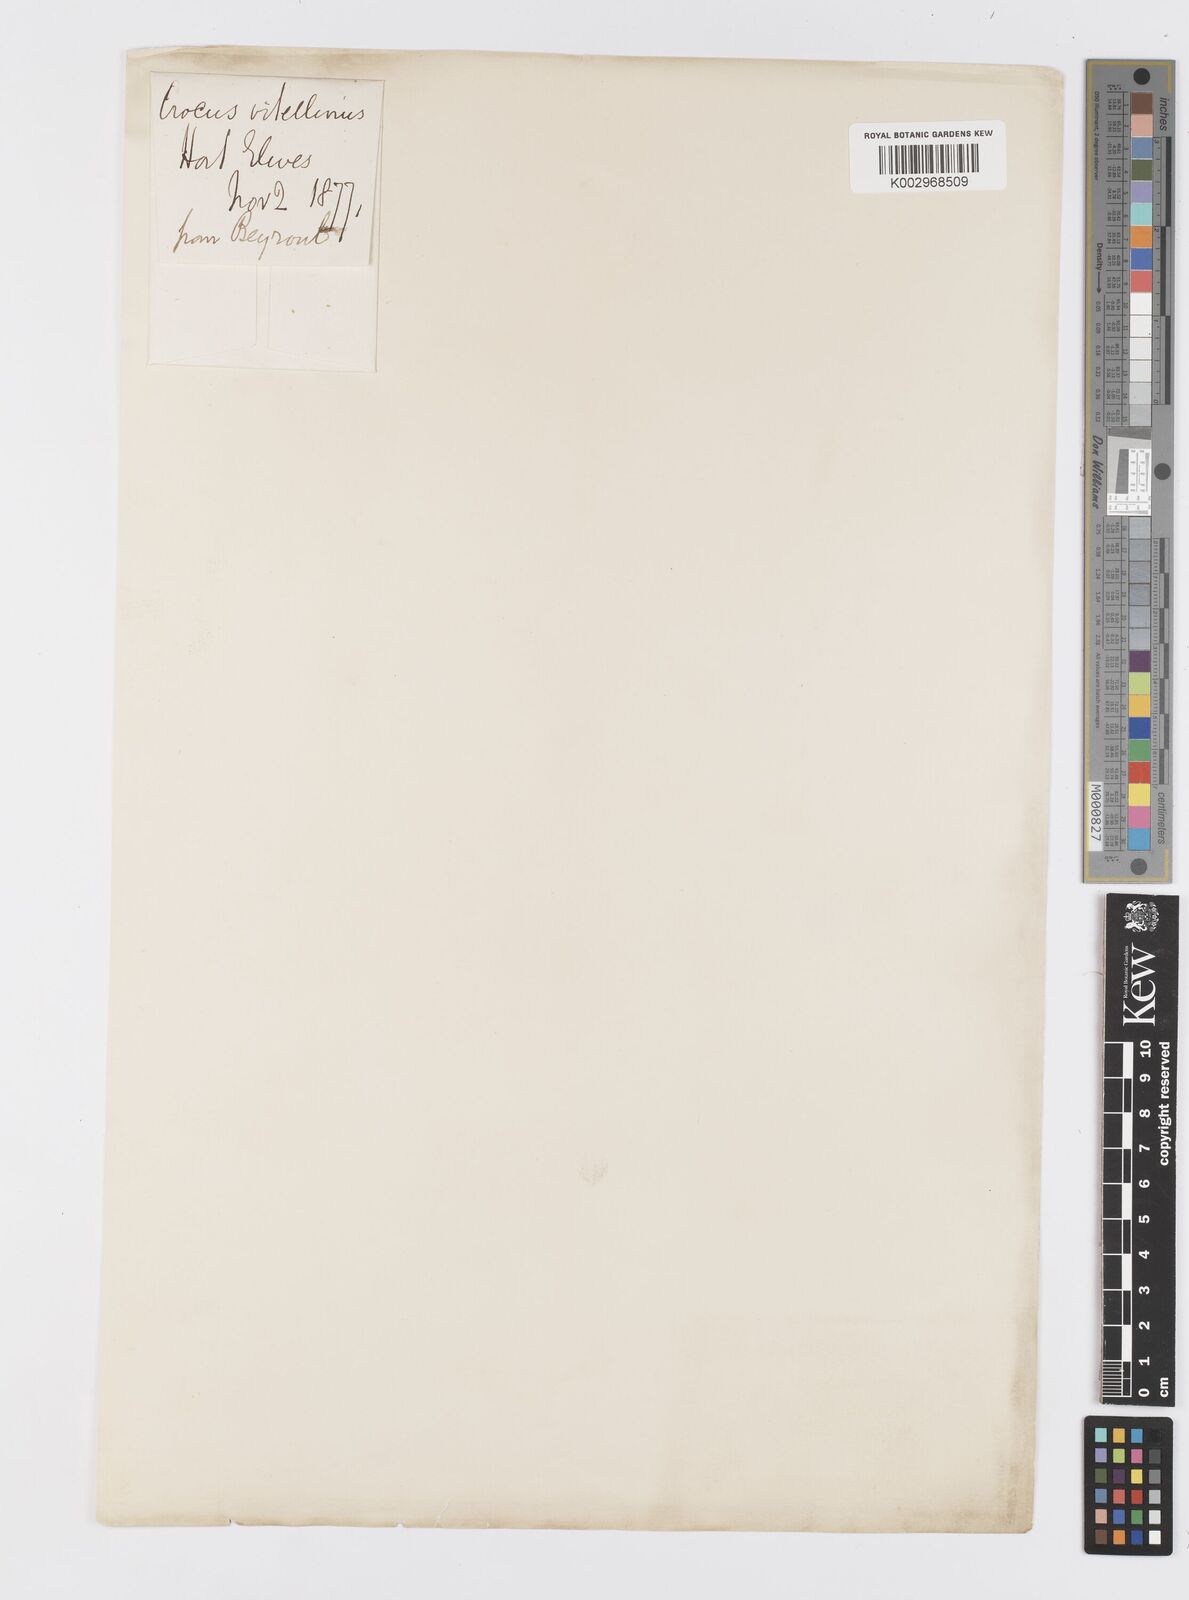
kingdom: Plantae
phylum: Tracheophyta
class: Liliopsida
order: Asparagales
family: Iridaceae
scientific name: Iridaceae
